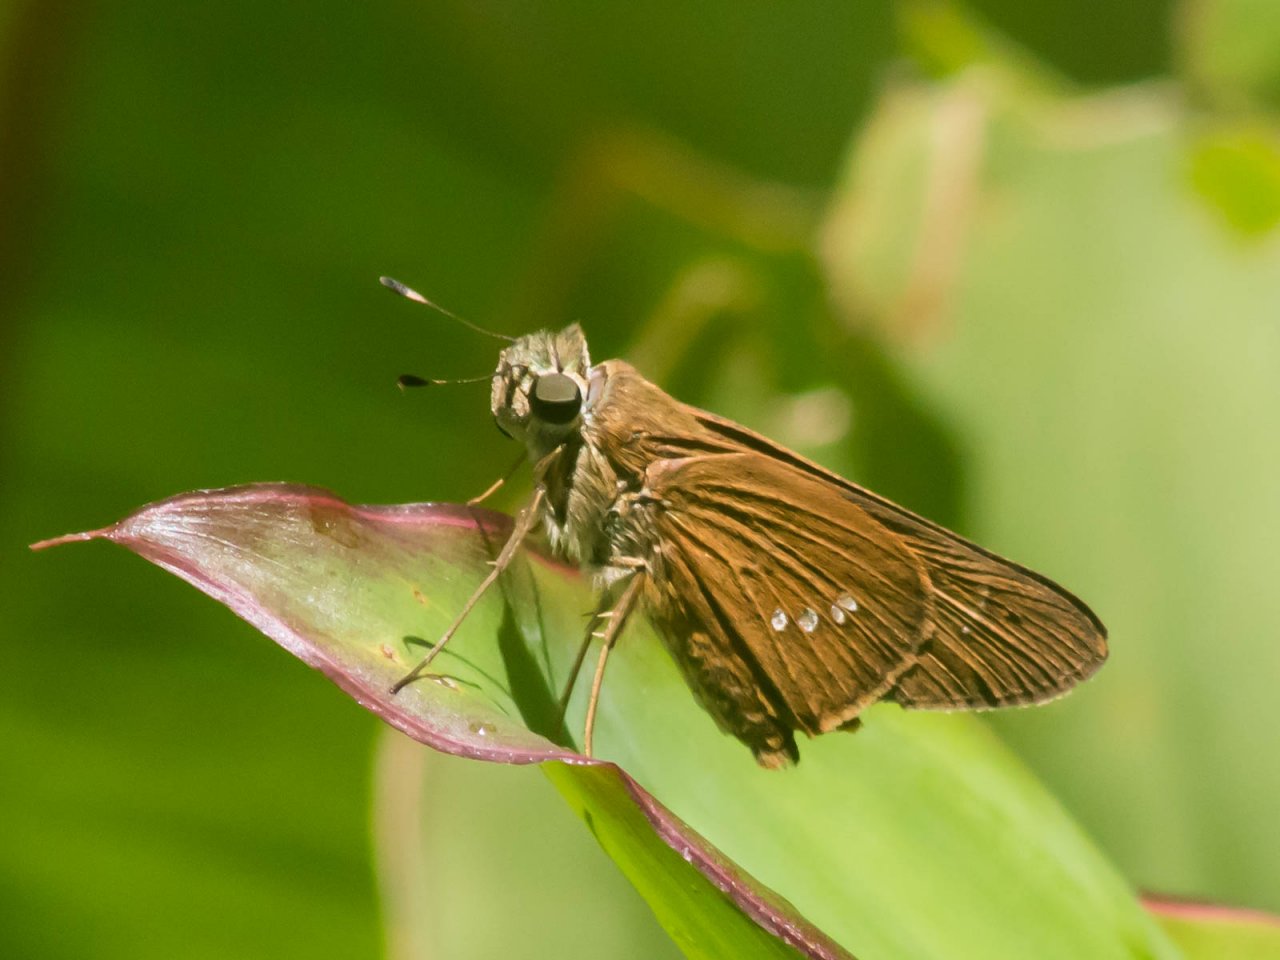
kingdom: Animalia
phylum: Arthropoda
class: Insecta
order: Lepidoptera
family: Hesperiidae
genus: Calpodes
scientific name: Calpodes ethlius
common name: Brazilian Skipper
